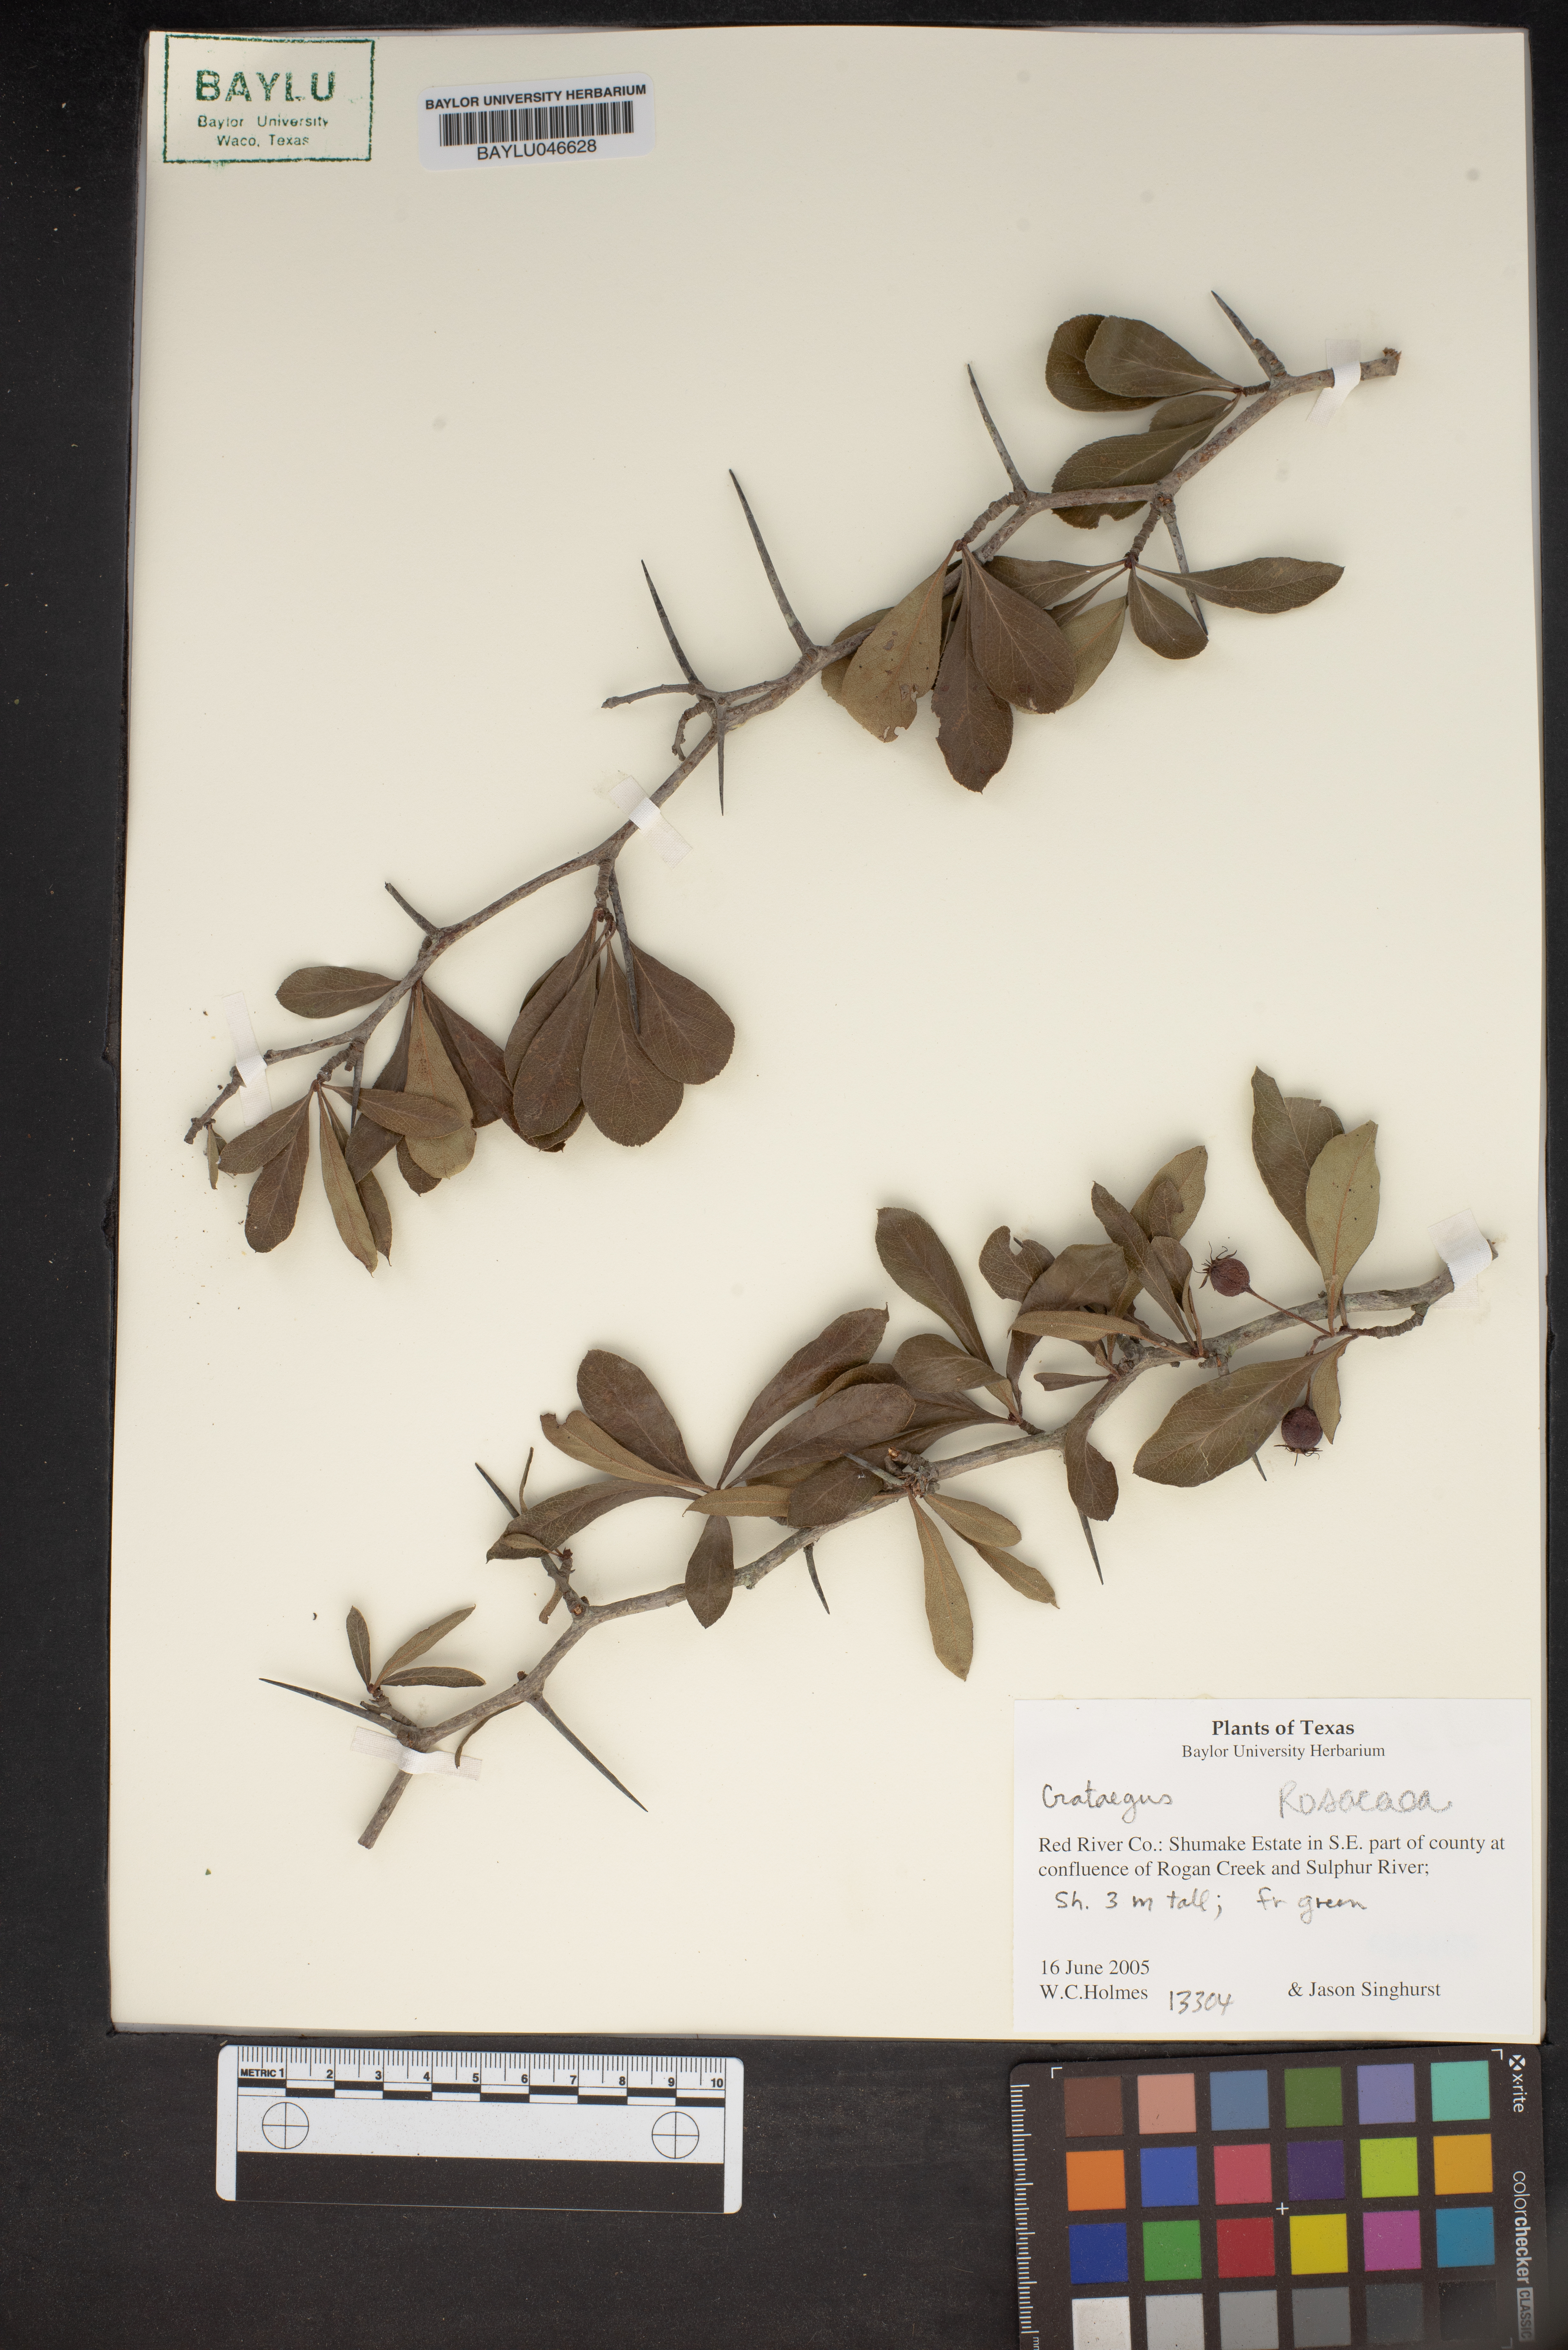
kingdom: Plantae
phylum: Tracheophyta
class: Magnoliopsida
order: Rosales
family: Rosaceae
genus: Crataegus
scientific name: Crataegus
